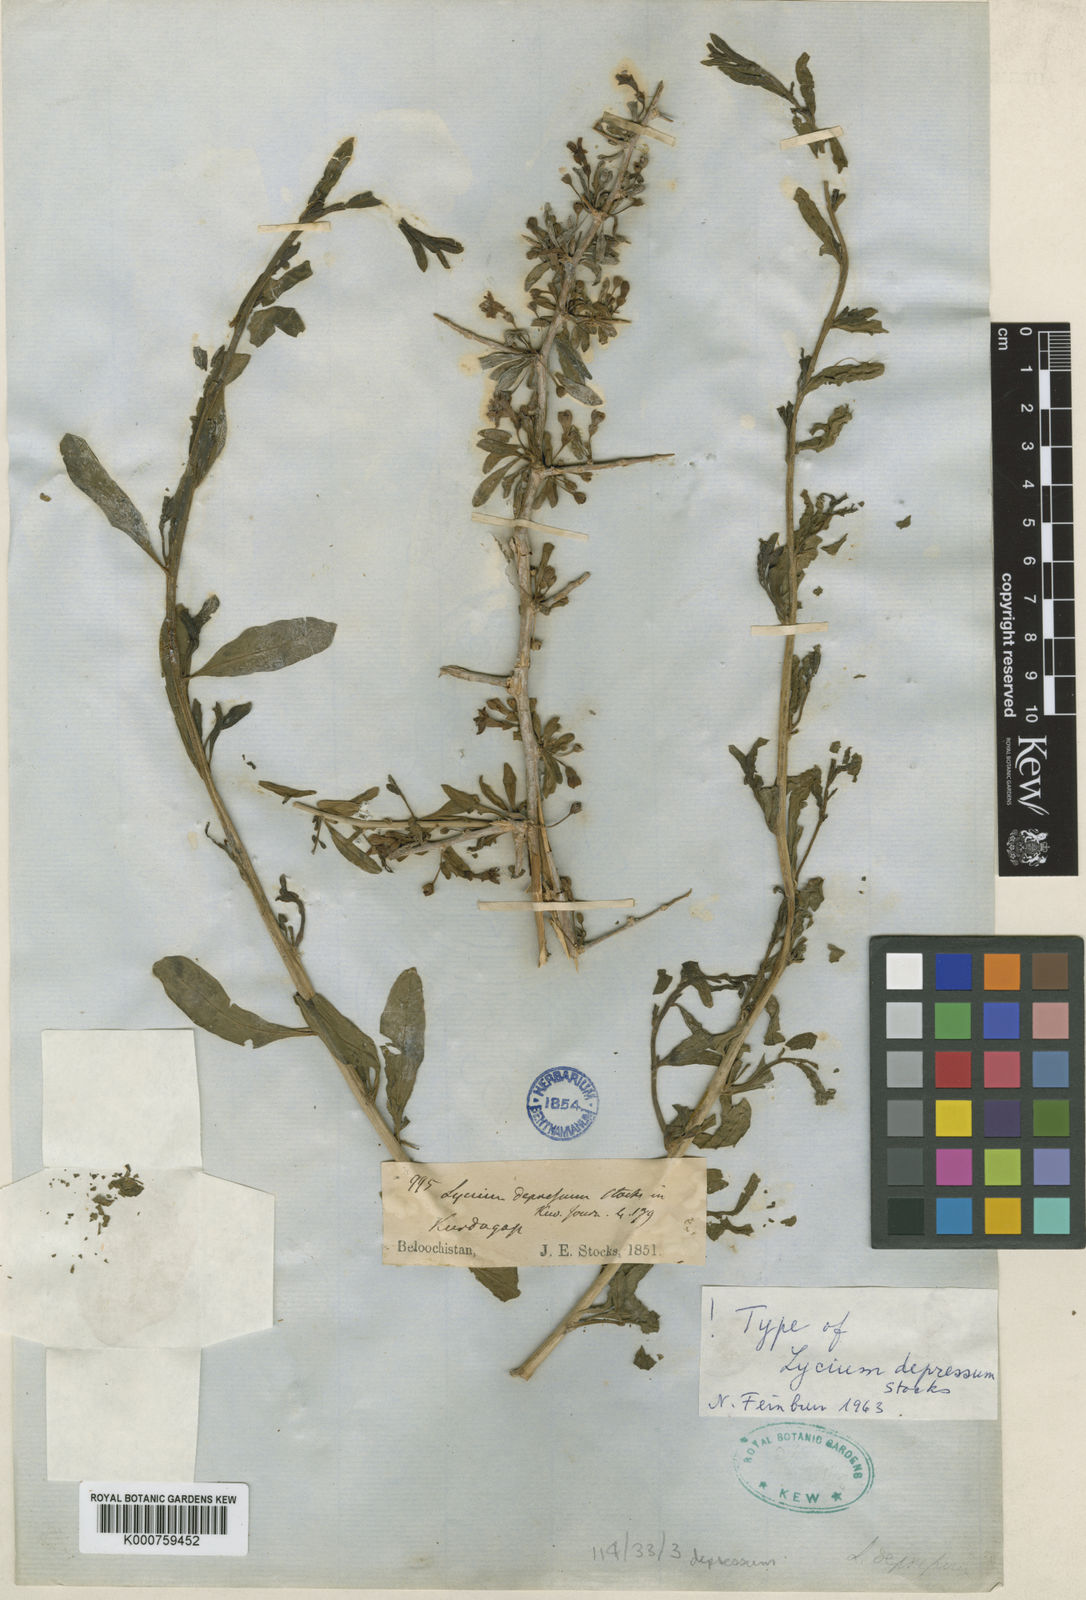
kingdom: Plantae
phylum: Tracheophyta
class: Magnoliopsida
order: Solanales
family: Solanaceae
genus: Lycium
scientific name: Lycium depressum
